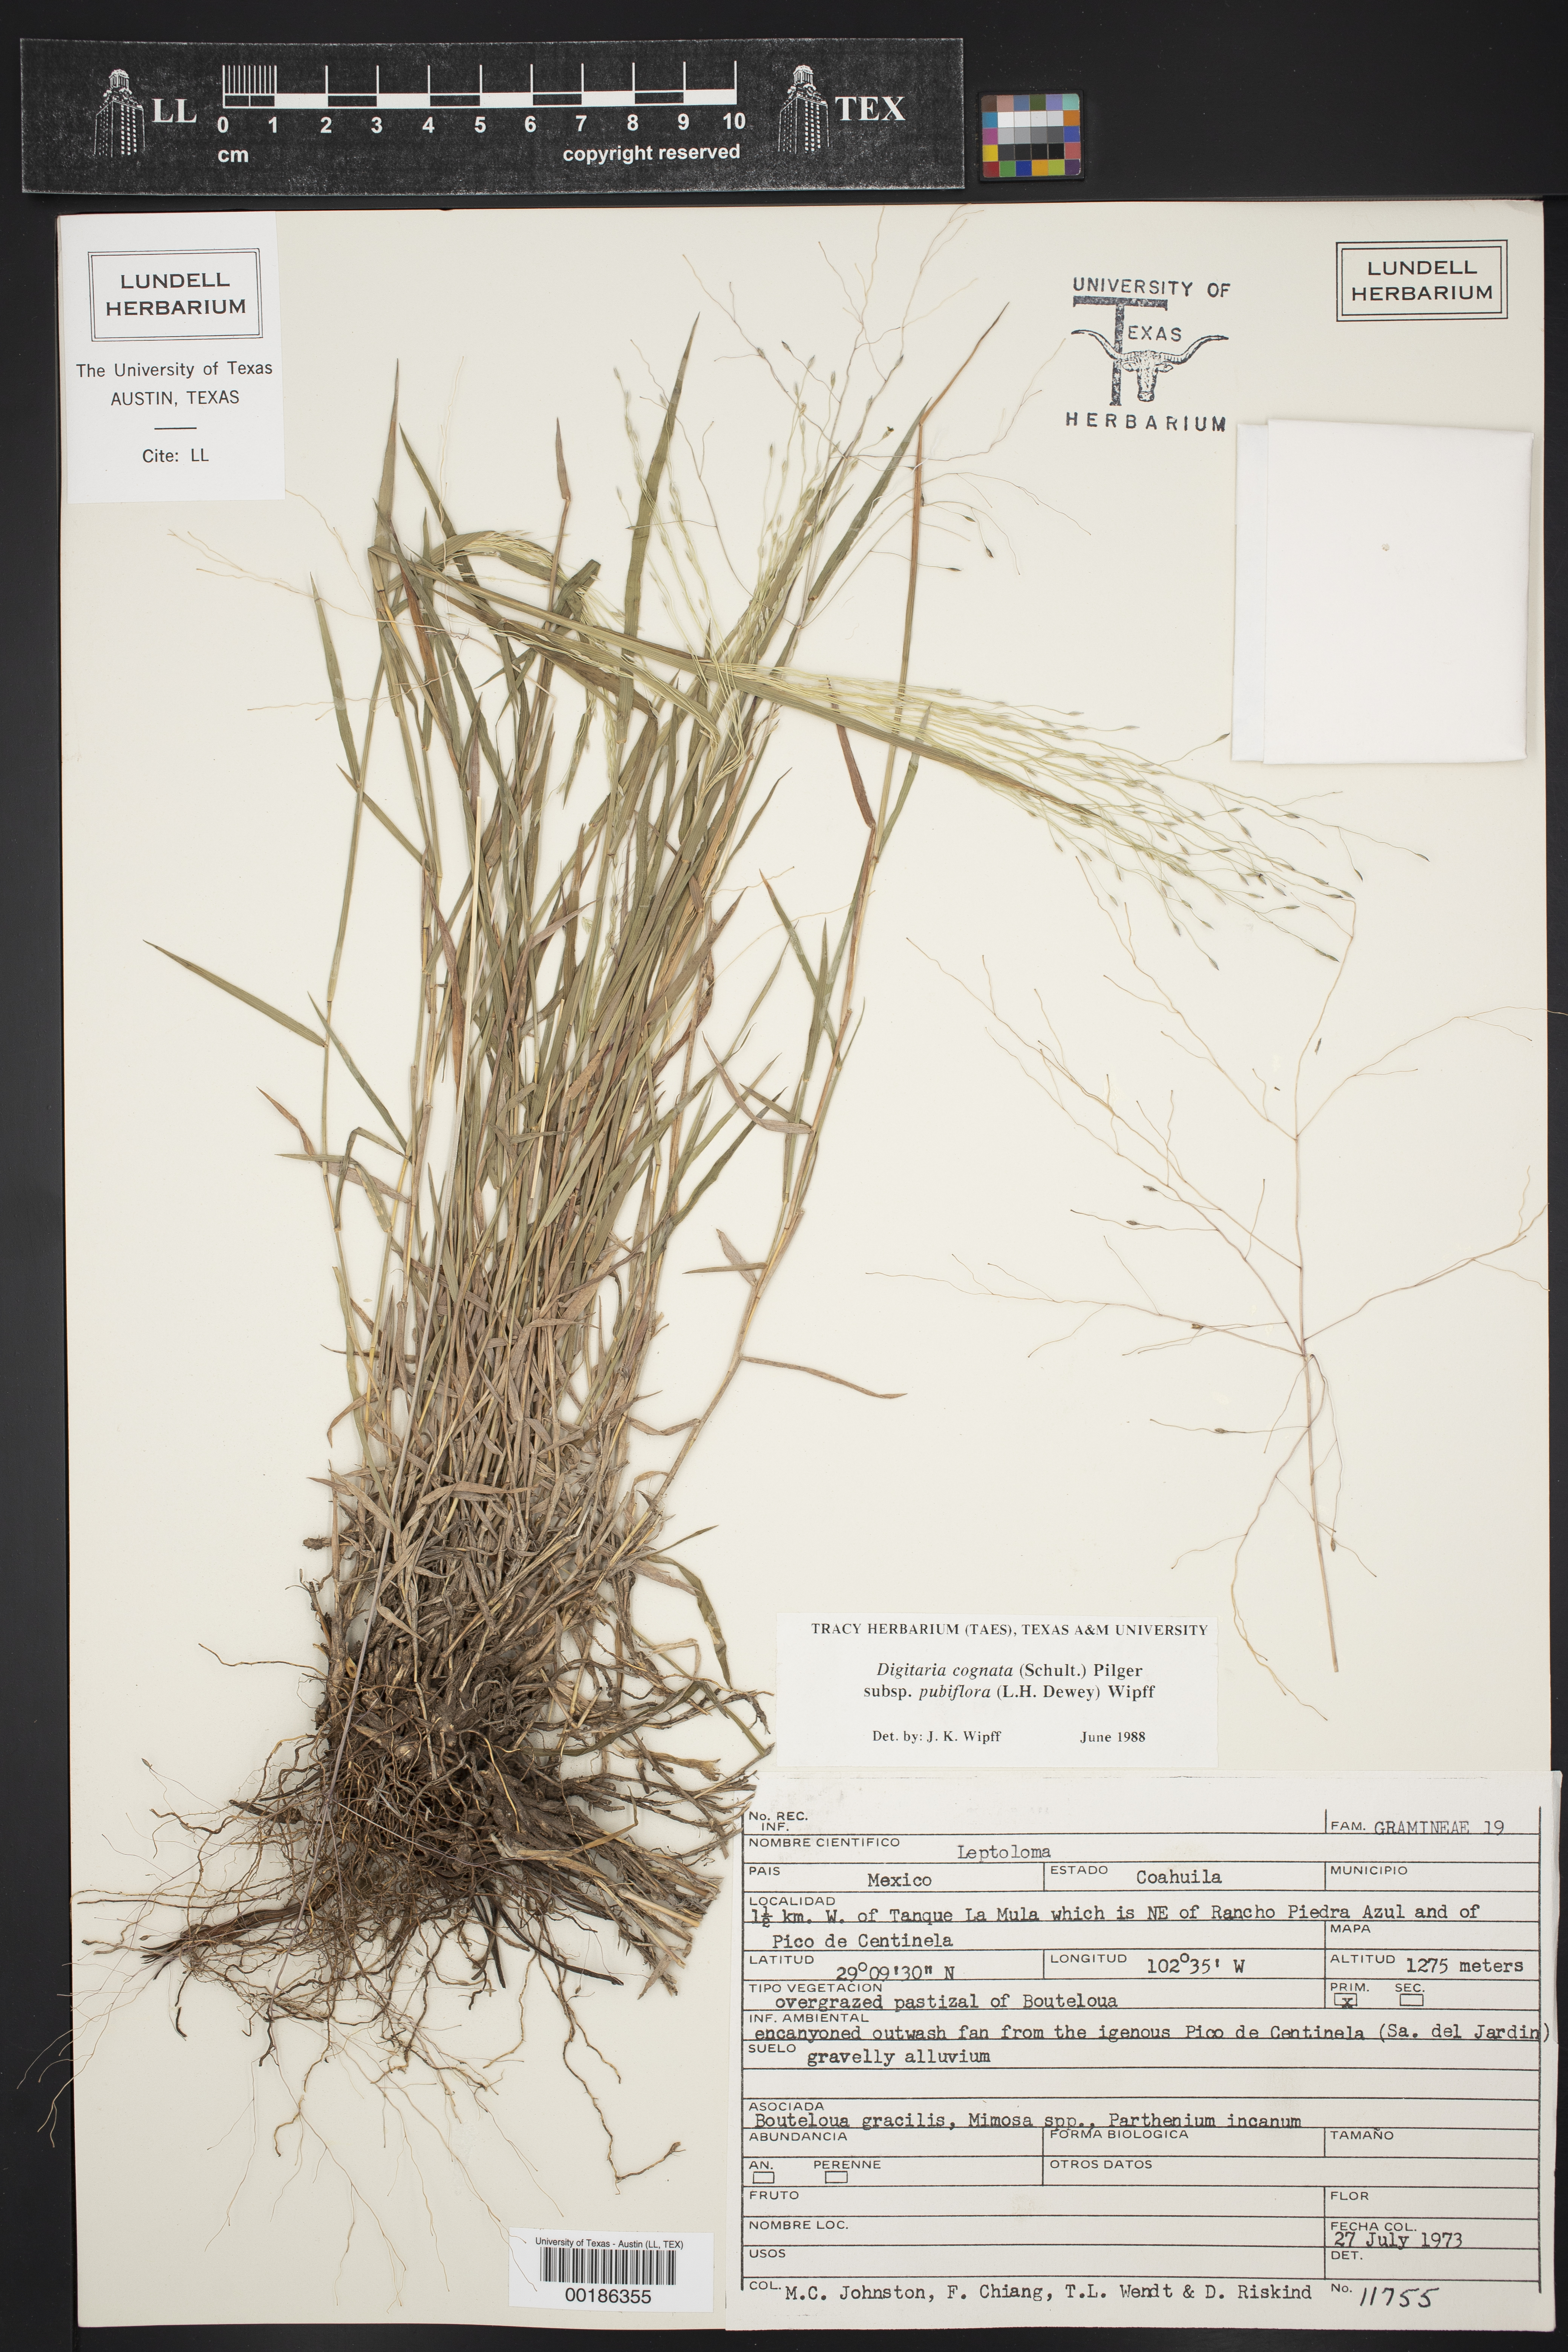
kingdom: Plantae
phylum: Tracheophyta
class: Liliopsida
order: Poales
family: Poaceae
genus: Digitaria
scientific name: Digitaria cognata
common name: Fall witchgrass
